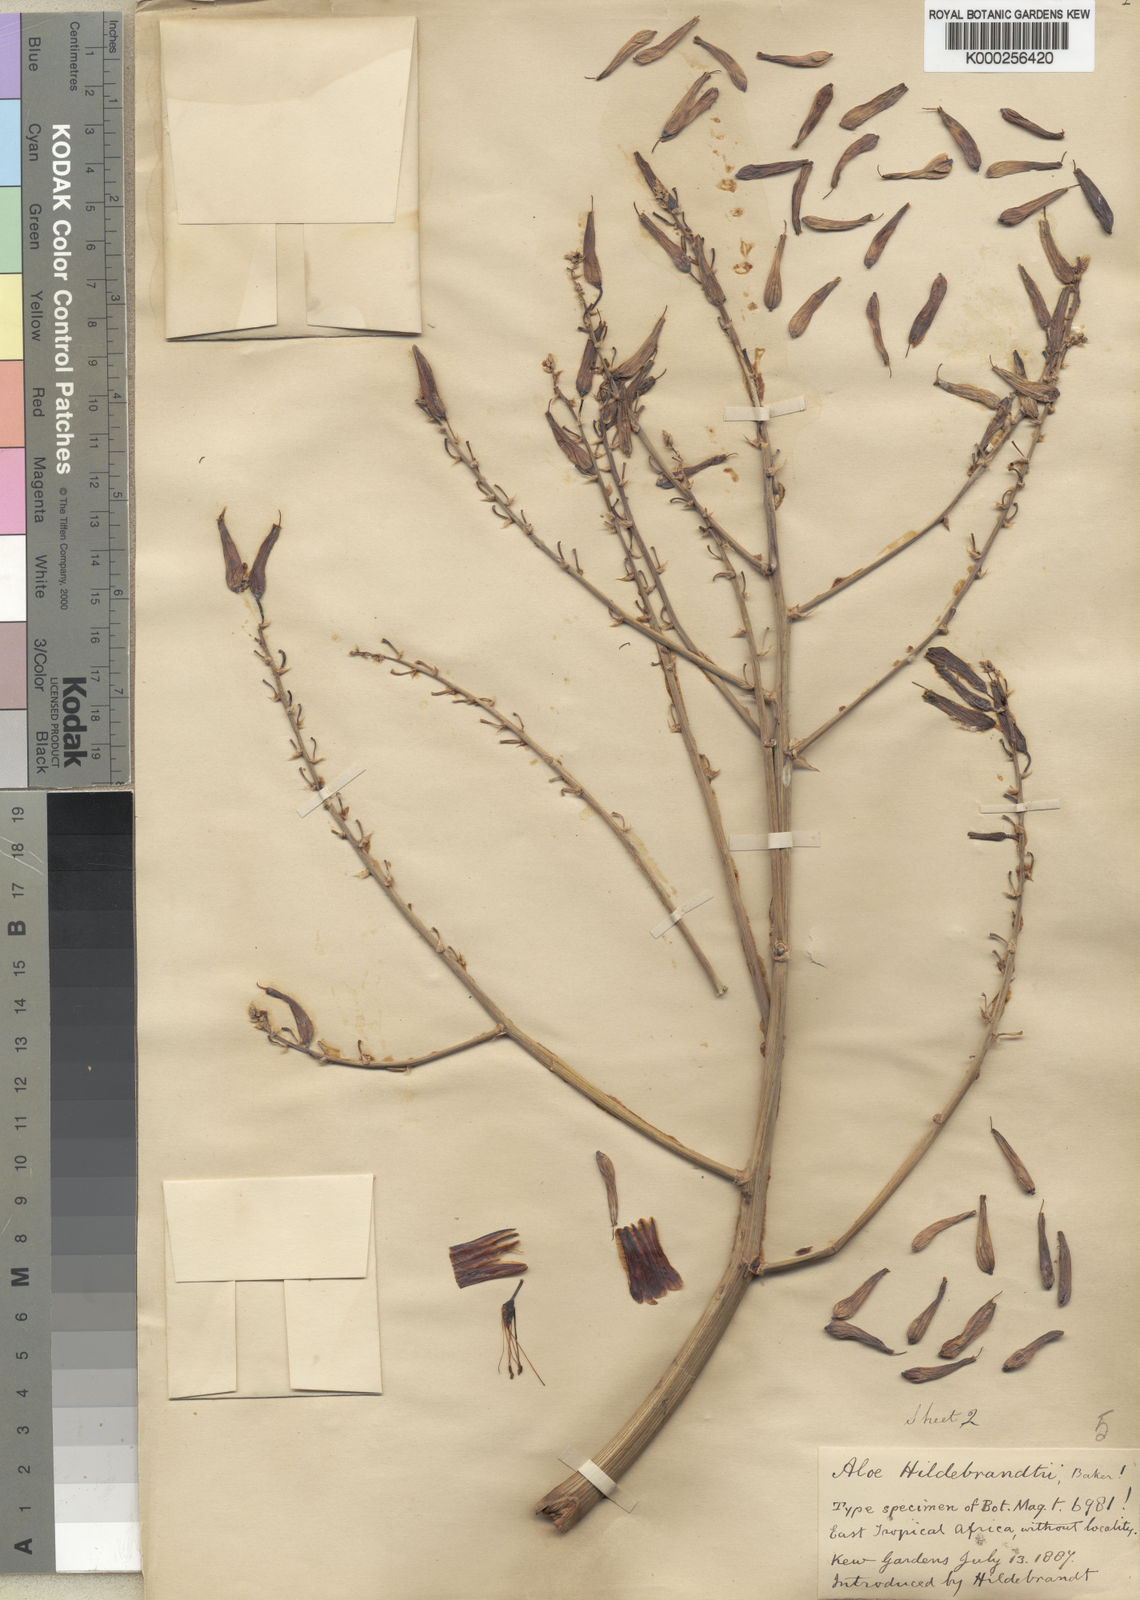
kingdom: Plantae
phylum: Tracheophyta
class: Liliopsida
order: Asparagales
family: Asphodelaceae
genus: Aloe
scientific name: Aloe hildebrandtii
